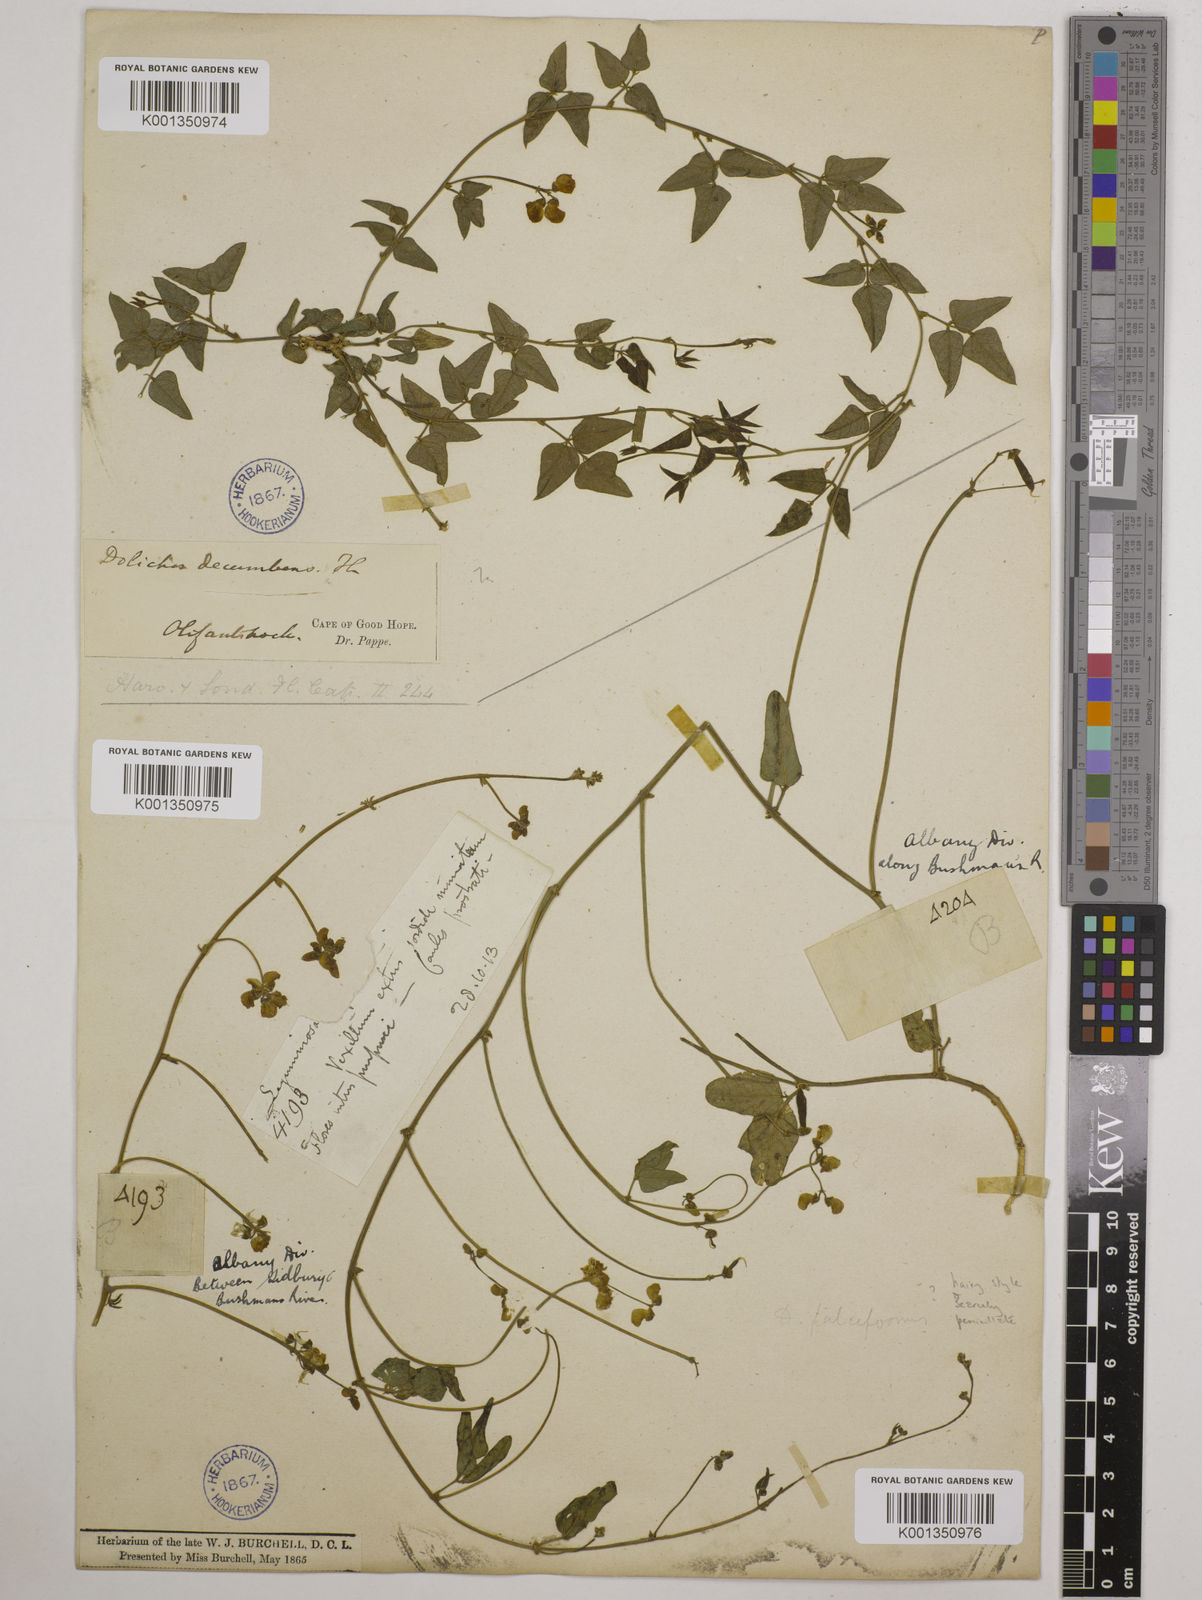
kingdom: Plantae
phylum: Tracheophyta
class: Magnoliopsida
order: Fabales
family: Fabaceae
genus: Dolichos
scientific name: Dolichos
